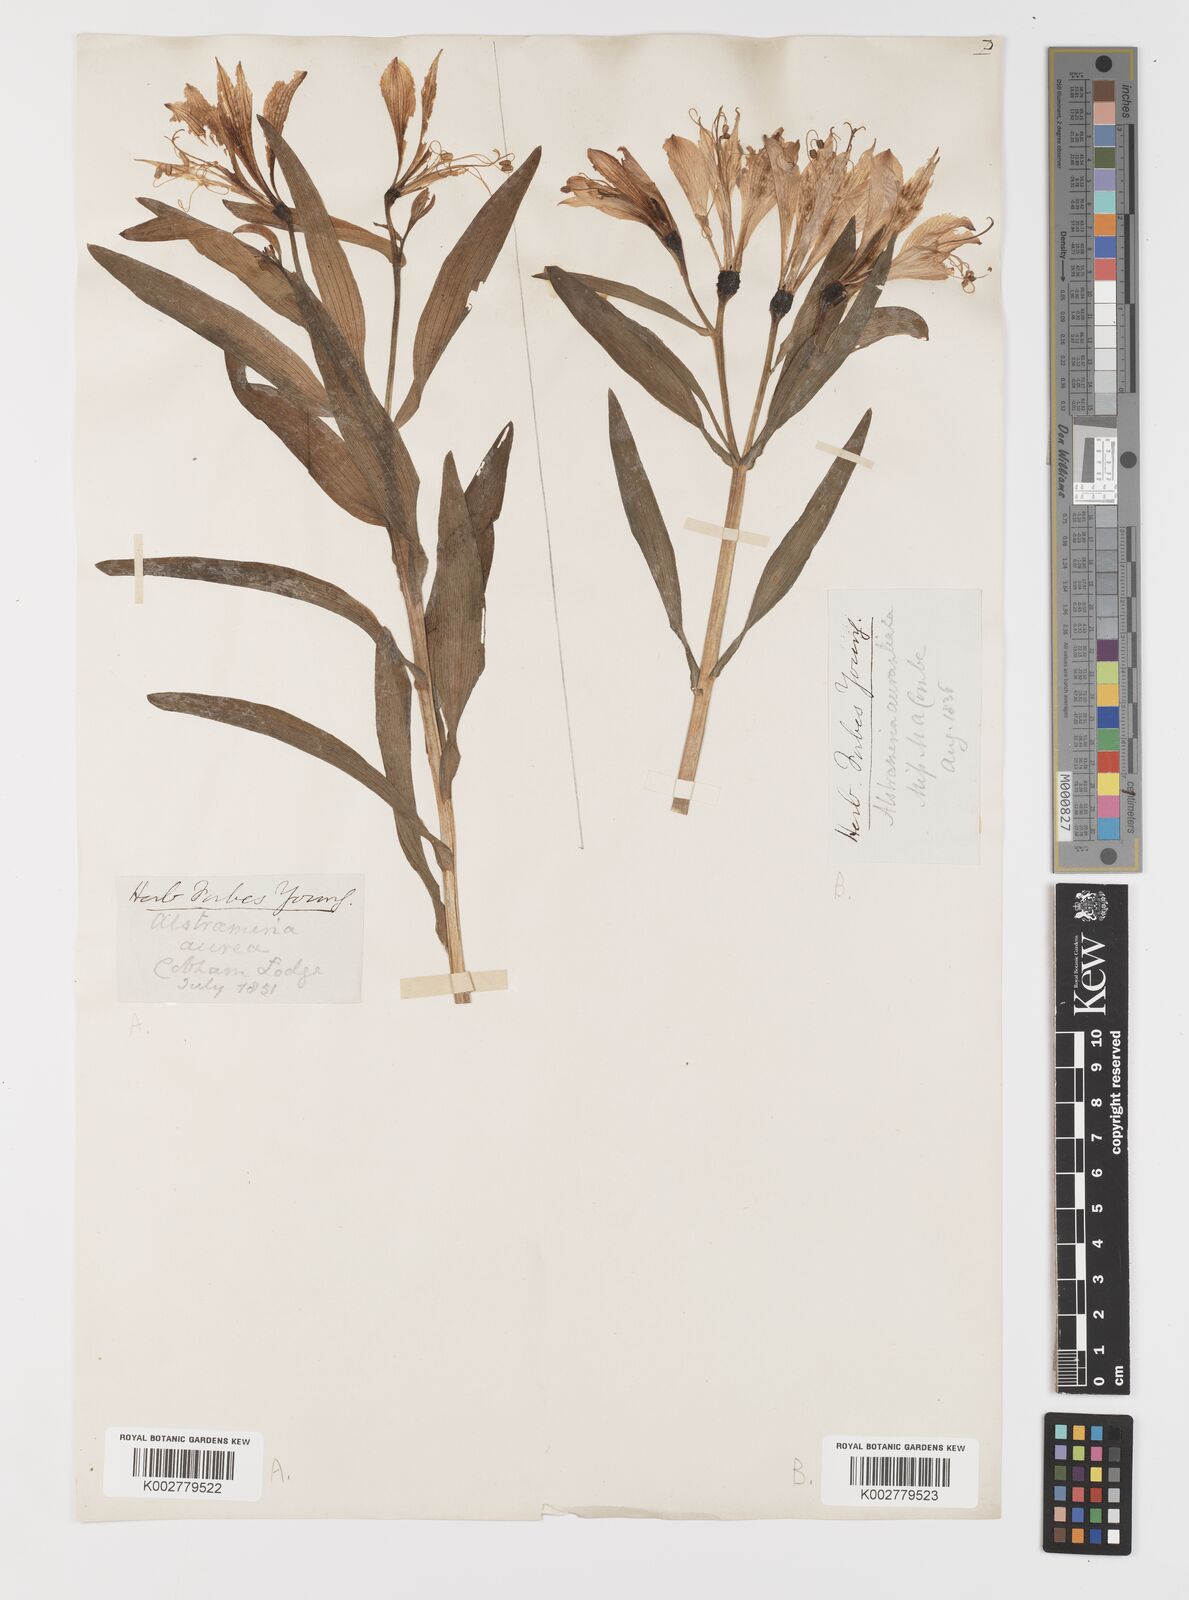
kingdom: Plantae
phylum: Tracheophyta
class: Liliopsida
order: Liliales
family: Alstroemeriaceae
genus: Alstroemeria
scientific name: Alstroemeria aurea
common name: Peruvian lily
